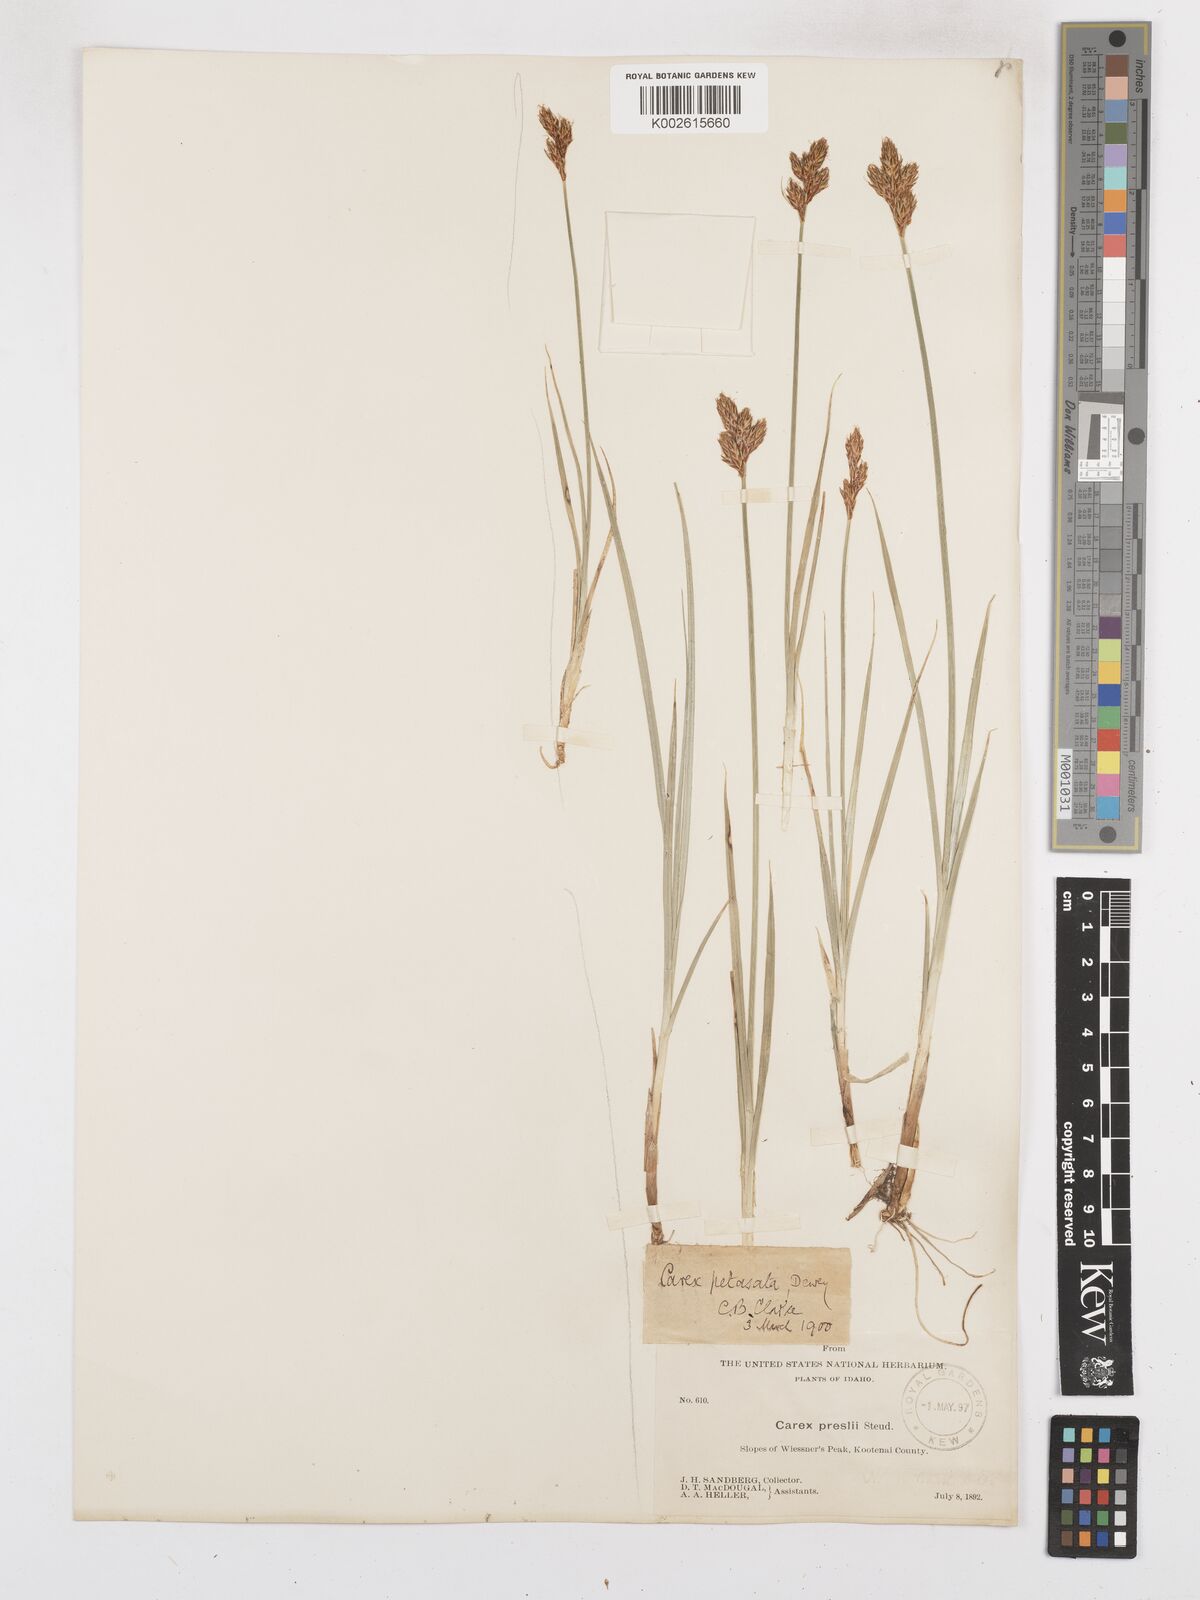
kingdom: Plantae
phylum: Tracheophyta
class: Liliopsida
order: Poales
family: Cyperaceae
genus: Carex
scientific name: Carex preslii
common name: Presl's sedge
